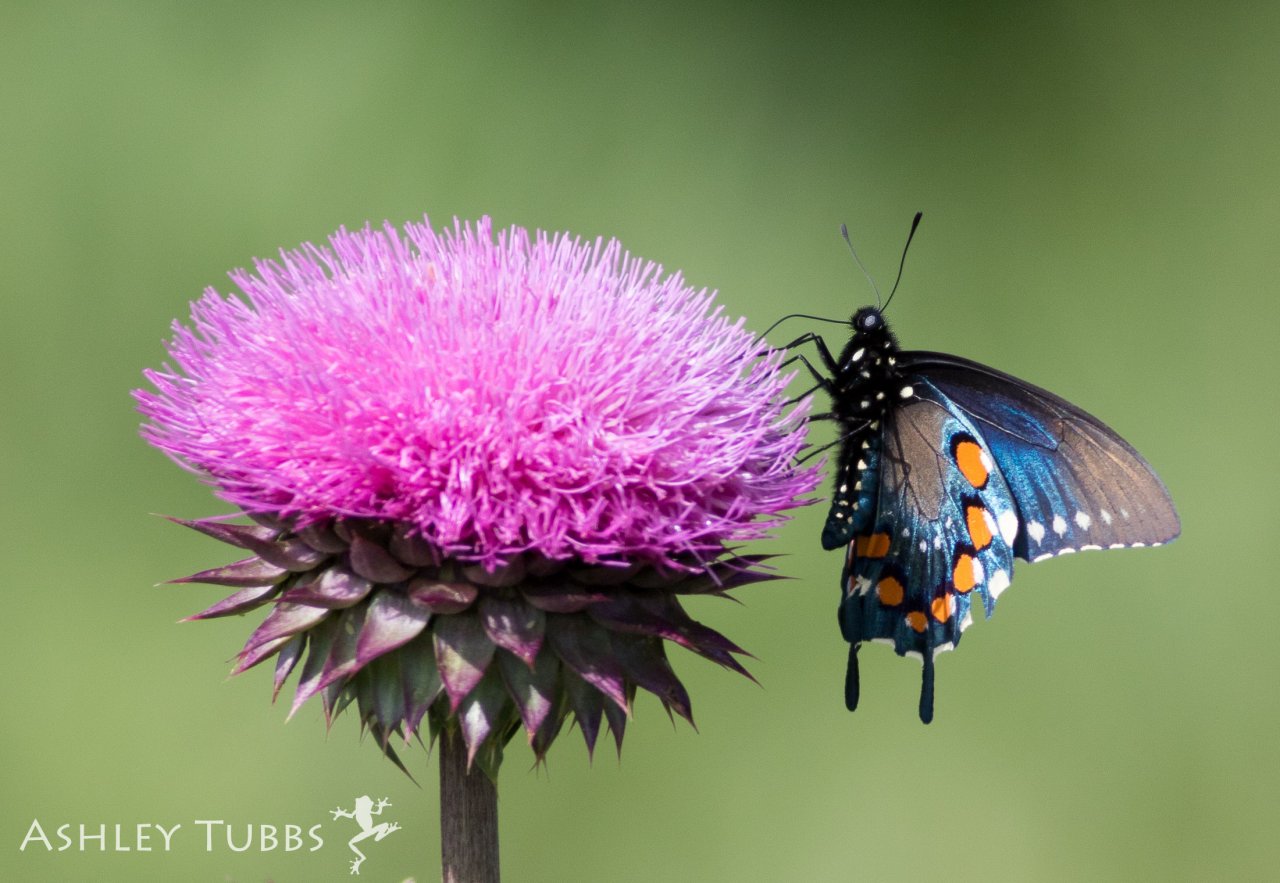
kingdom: Animalia
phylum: Arthropoda
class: Insecta
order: Lepidoptera
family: Papilionidae
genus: Battus
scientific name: Battus philenor
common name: Pipevine Swallowtail
